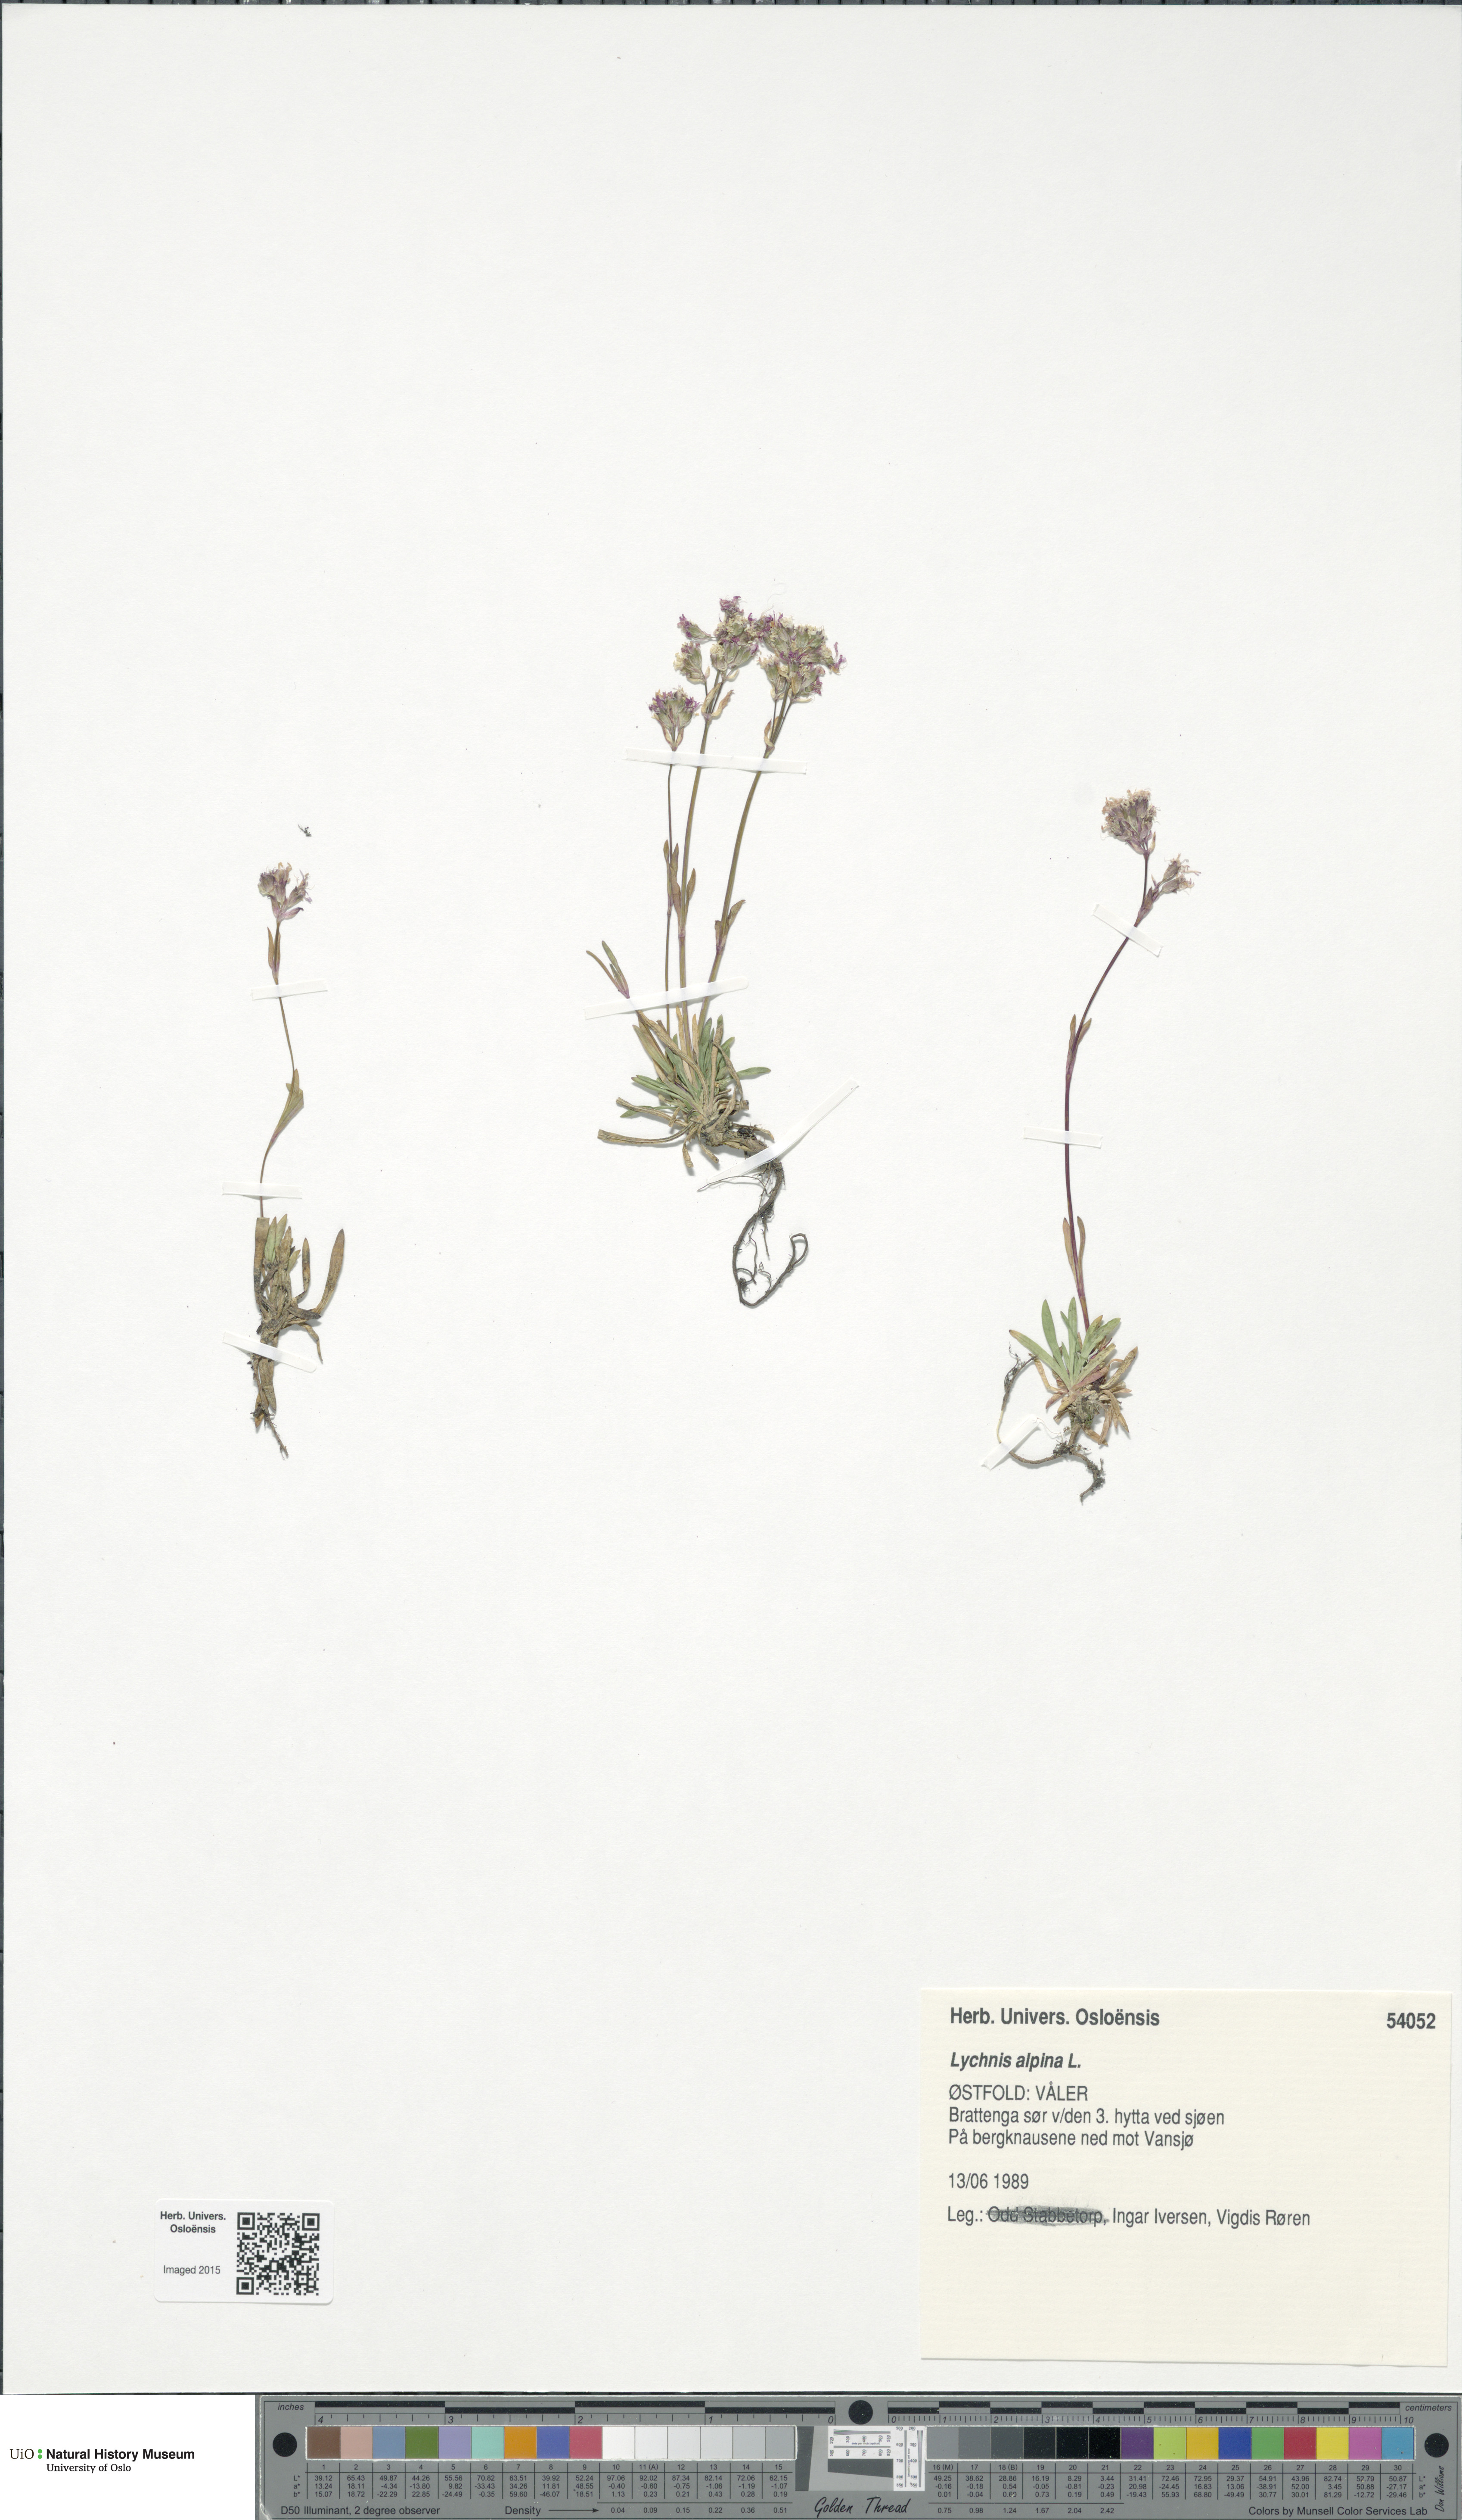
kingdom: Plantae
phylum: Tracheophyta
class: Magnoliopsida
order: Caryophyllales
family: Caryophyllaceae
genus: Viscaria
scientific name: Viscaria alpina
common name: Alpine campion
